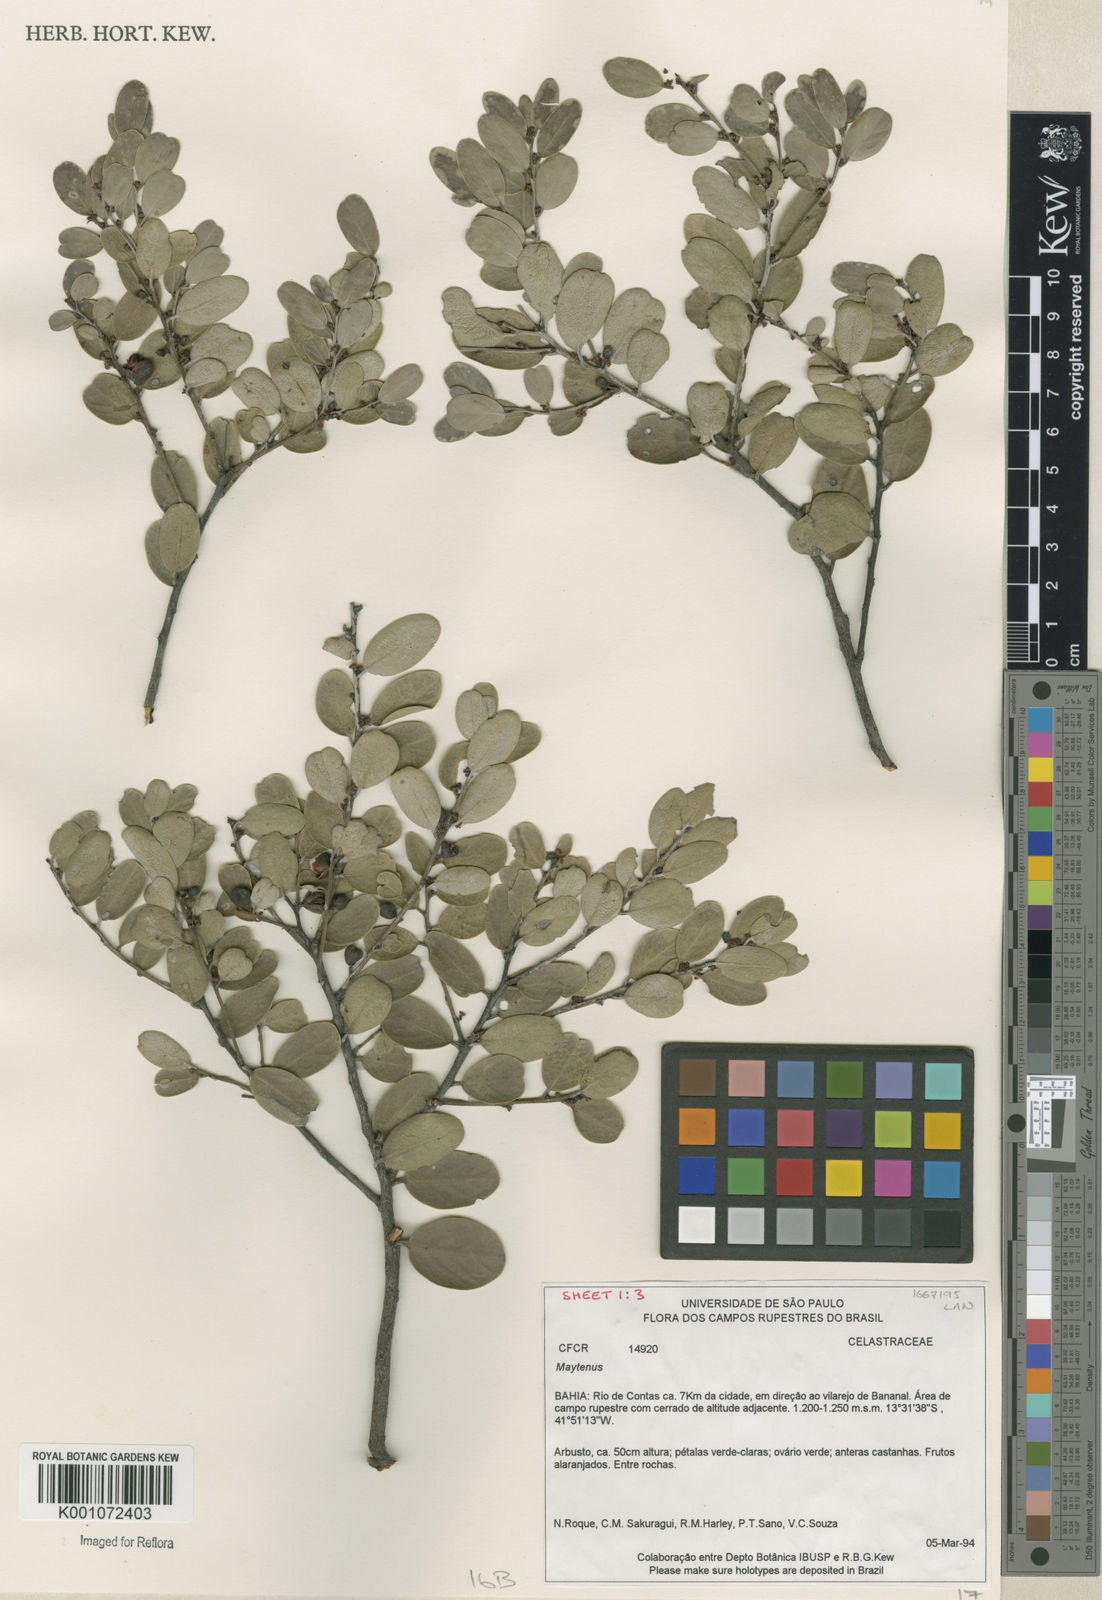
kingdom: Plantae
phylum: Tracheophyta
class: Magnoliopsida
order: Celastrales
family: Celastraceae
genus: Maytenus
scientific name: Maytenus
